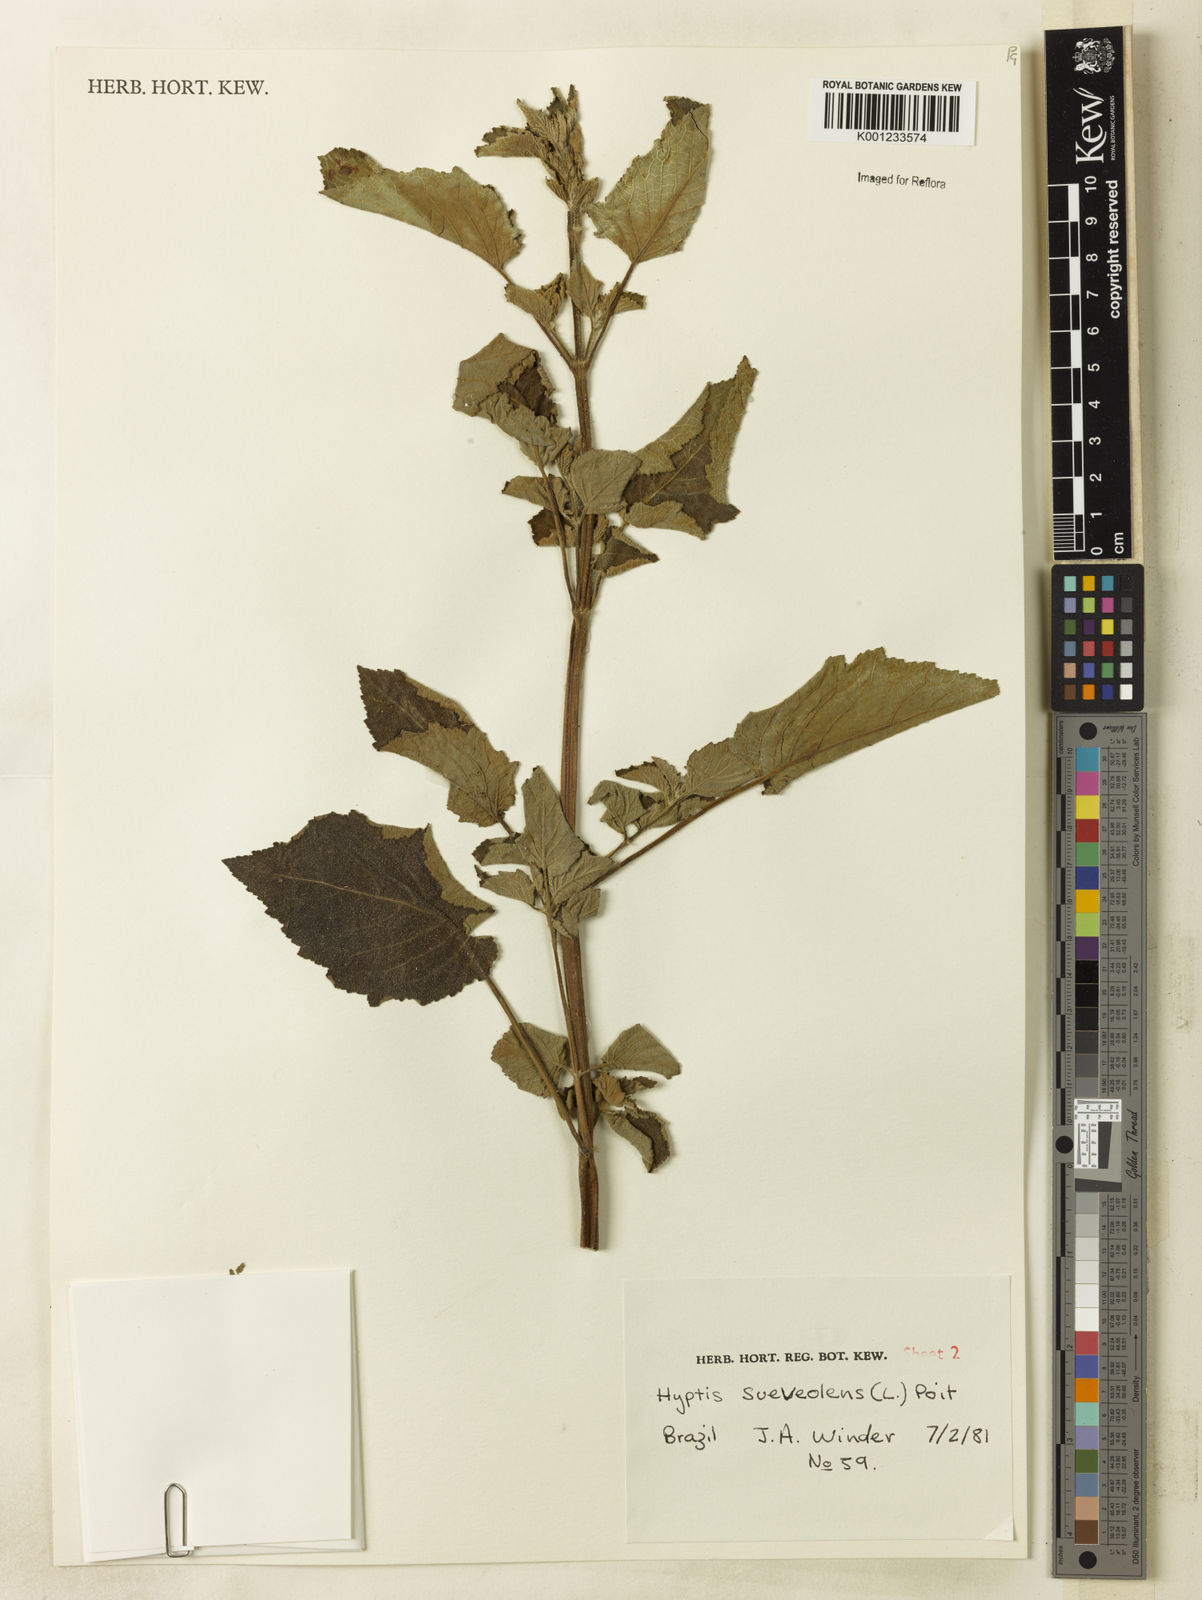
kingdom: Plantae
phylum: Tracheophyta
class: Magnoliopsida
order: Lamiales
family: Lamiaceae
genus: Mesosphaerum
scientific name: Mesosphaerum suaveolens
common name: Pignut
